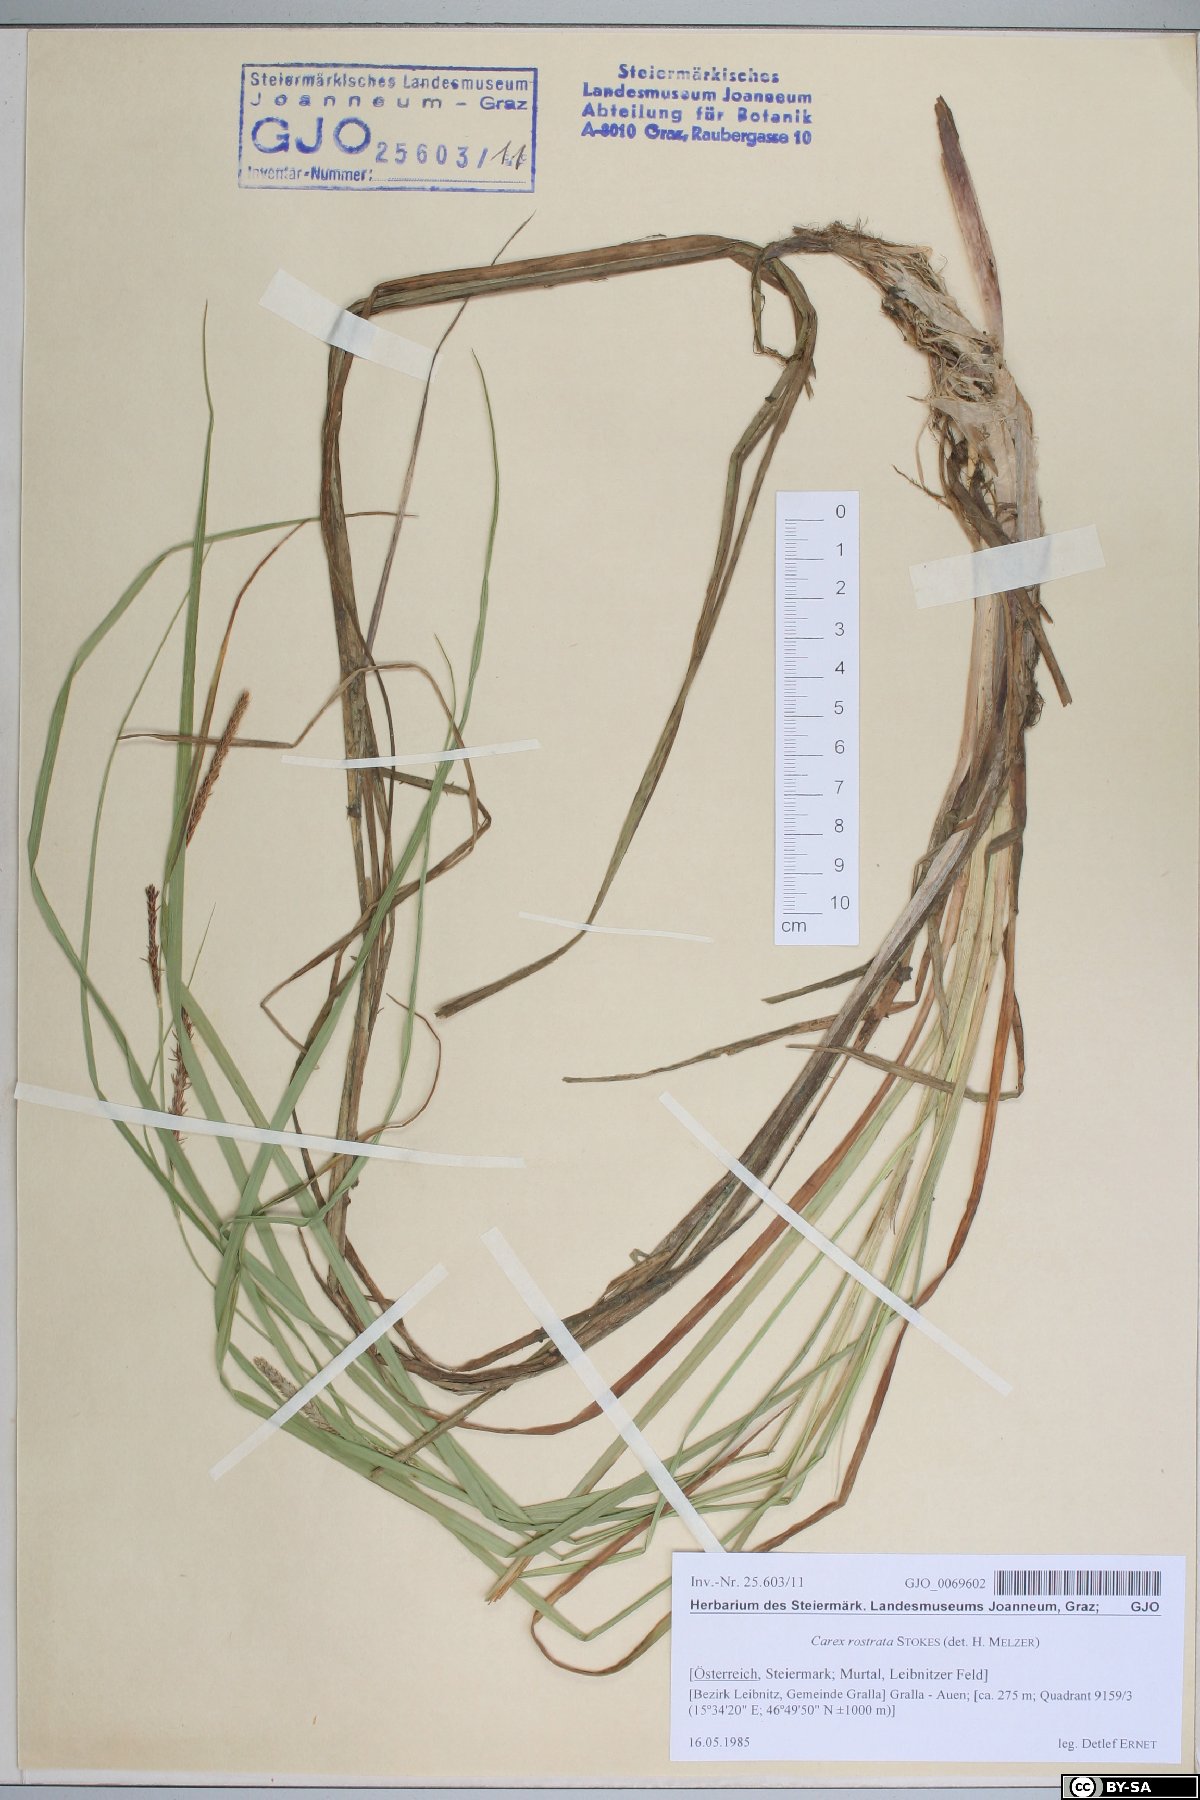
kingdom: Plantae
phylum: Tracheophyta
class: Liliopsida
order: Poales
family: Cyperaceae
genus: Carex
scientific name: Carex rostrata
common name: Bottle sedge
